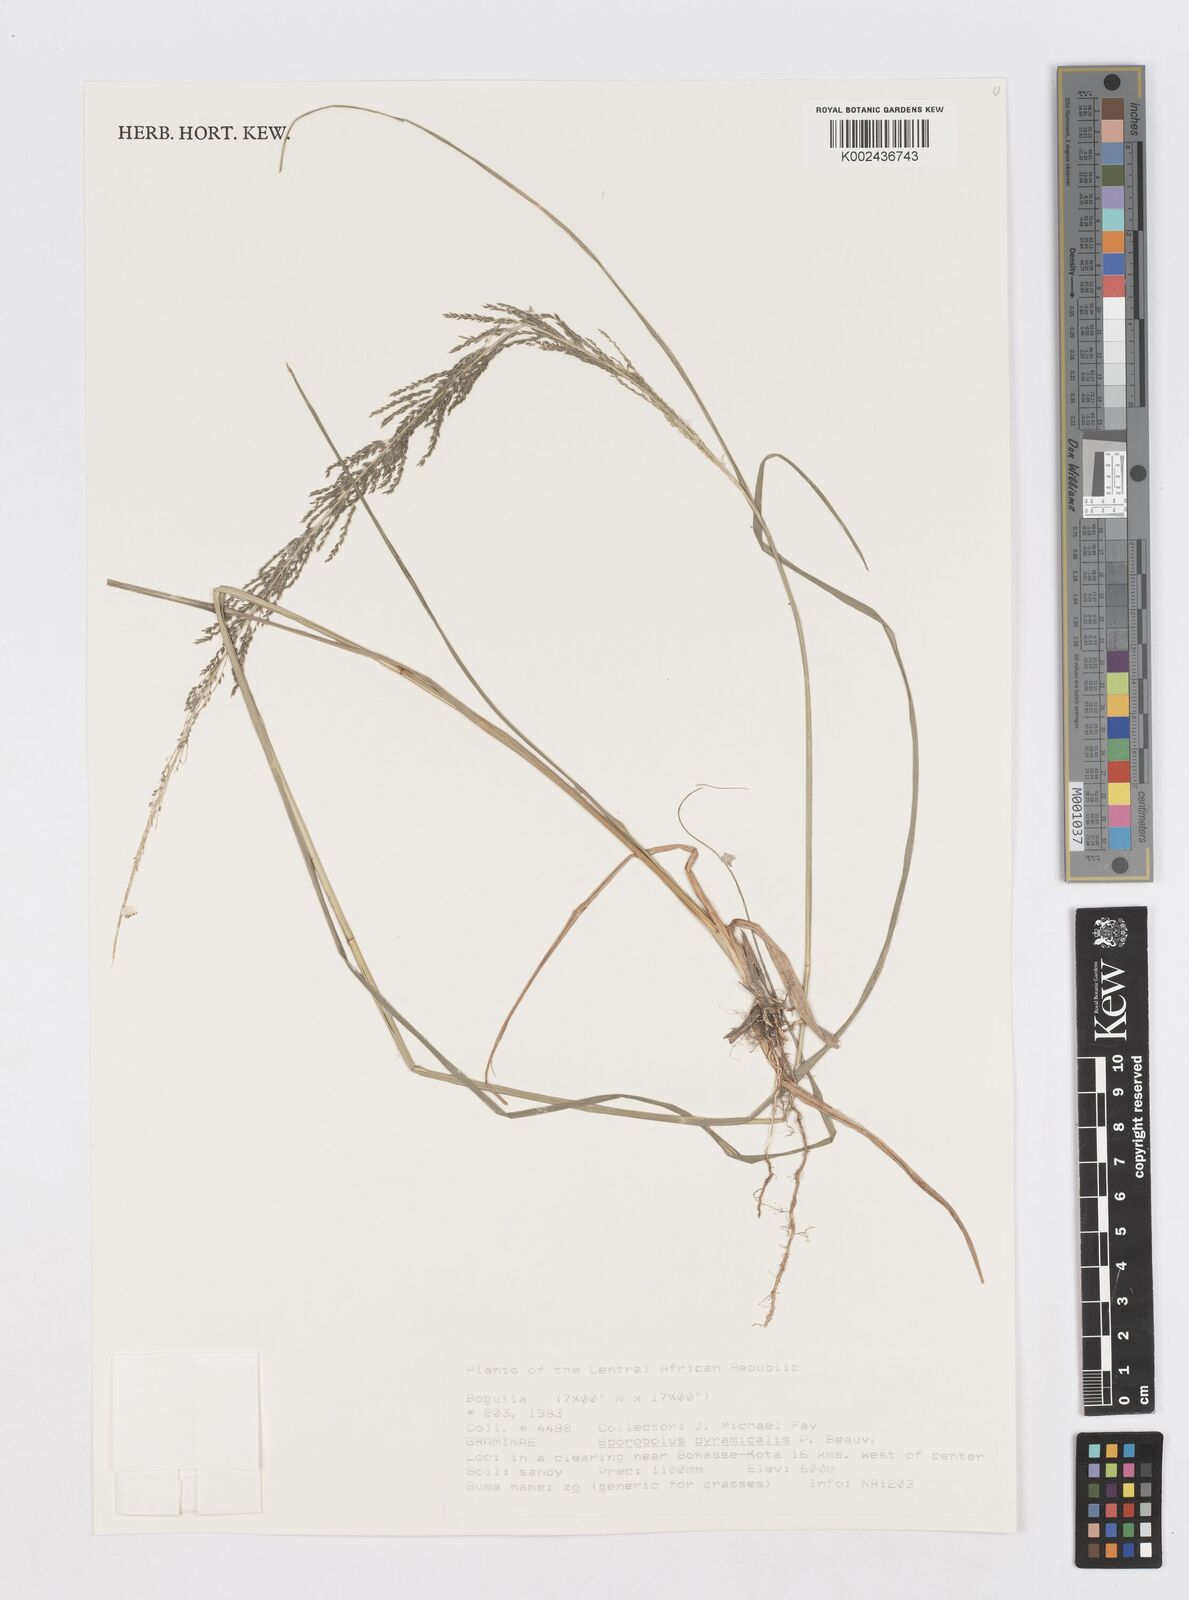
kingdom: Plantae
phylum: Tracheophyta
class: Liliopsida
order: Poales
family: Poaceae
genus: Sporobolus
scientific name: Sporobolus pyramidalis
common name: West indian dropseed
